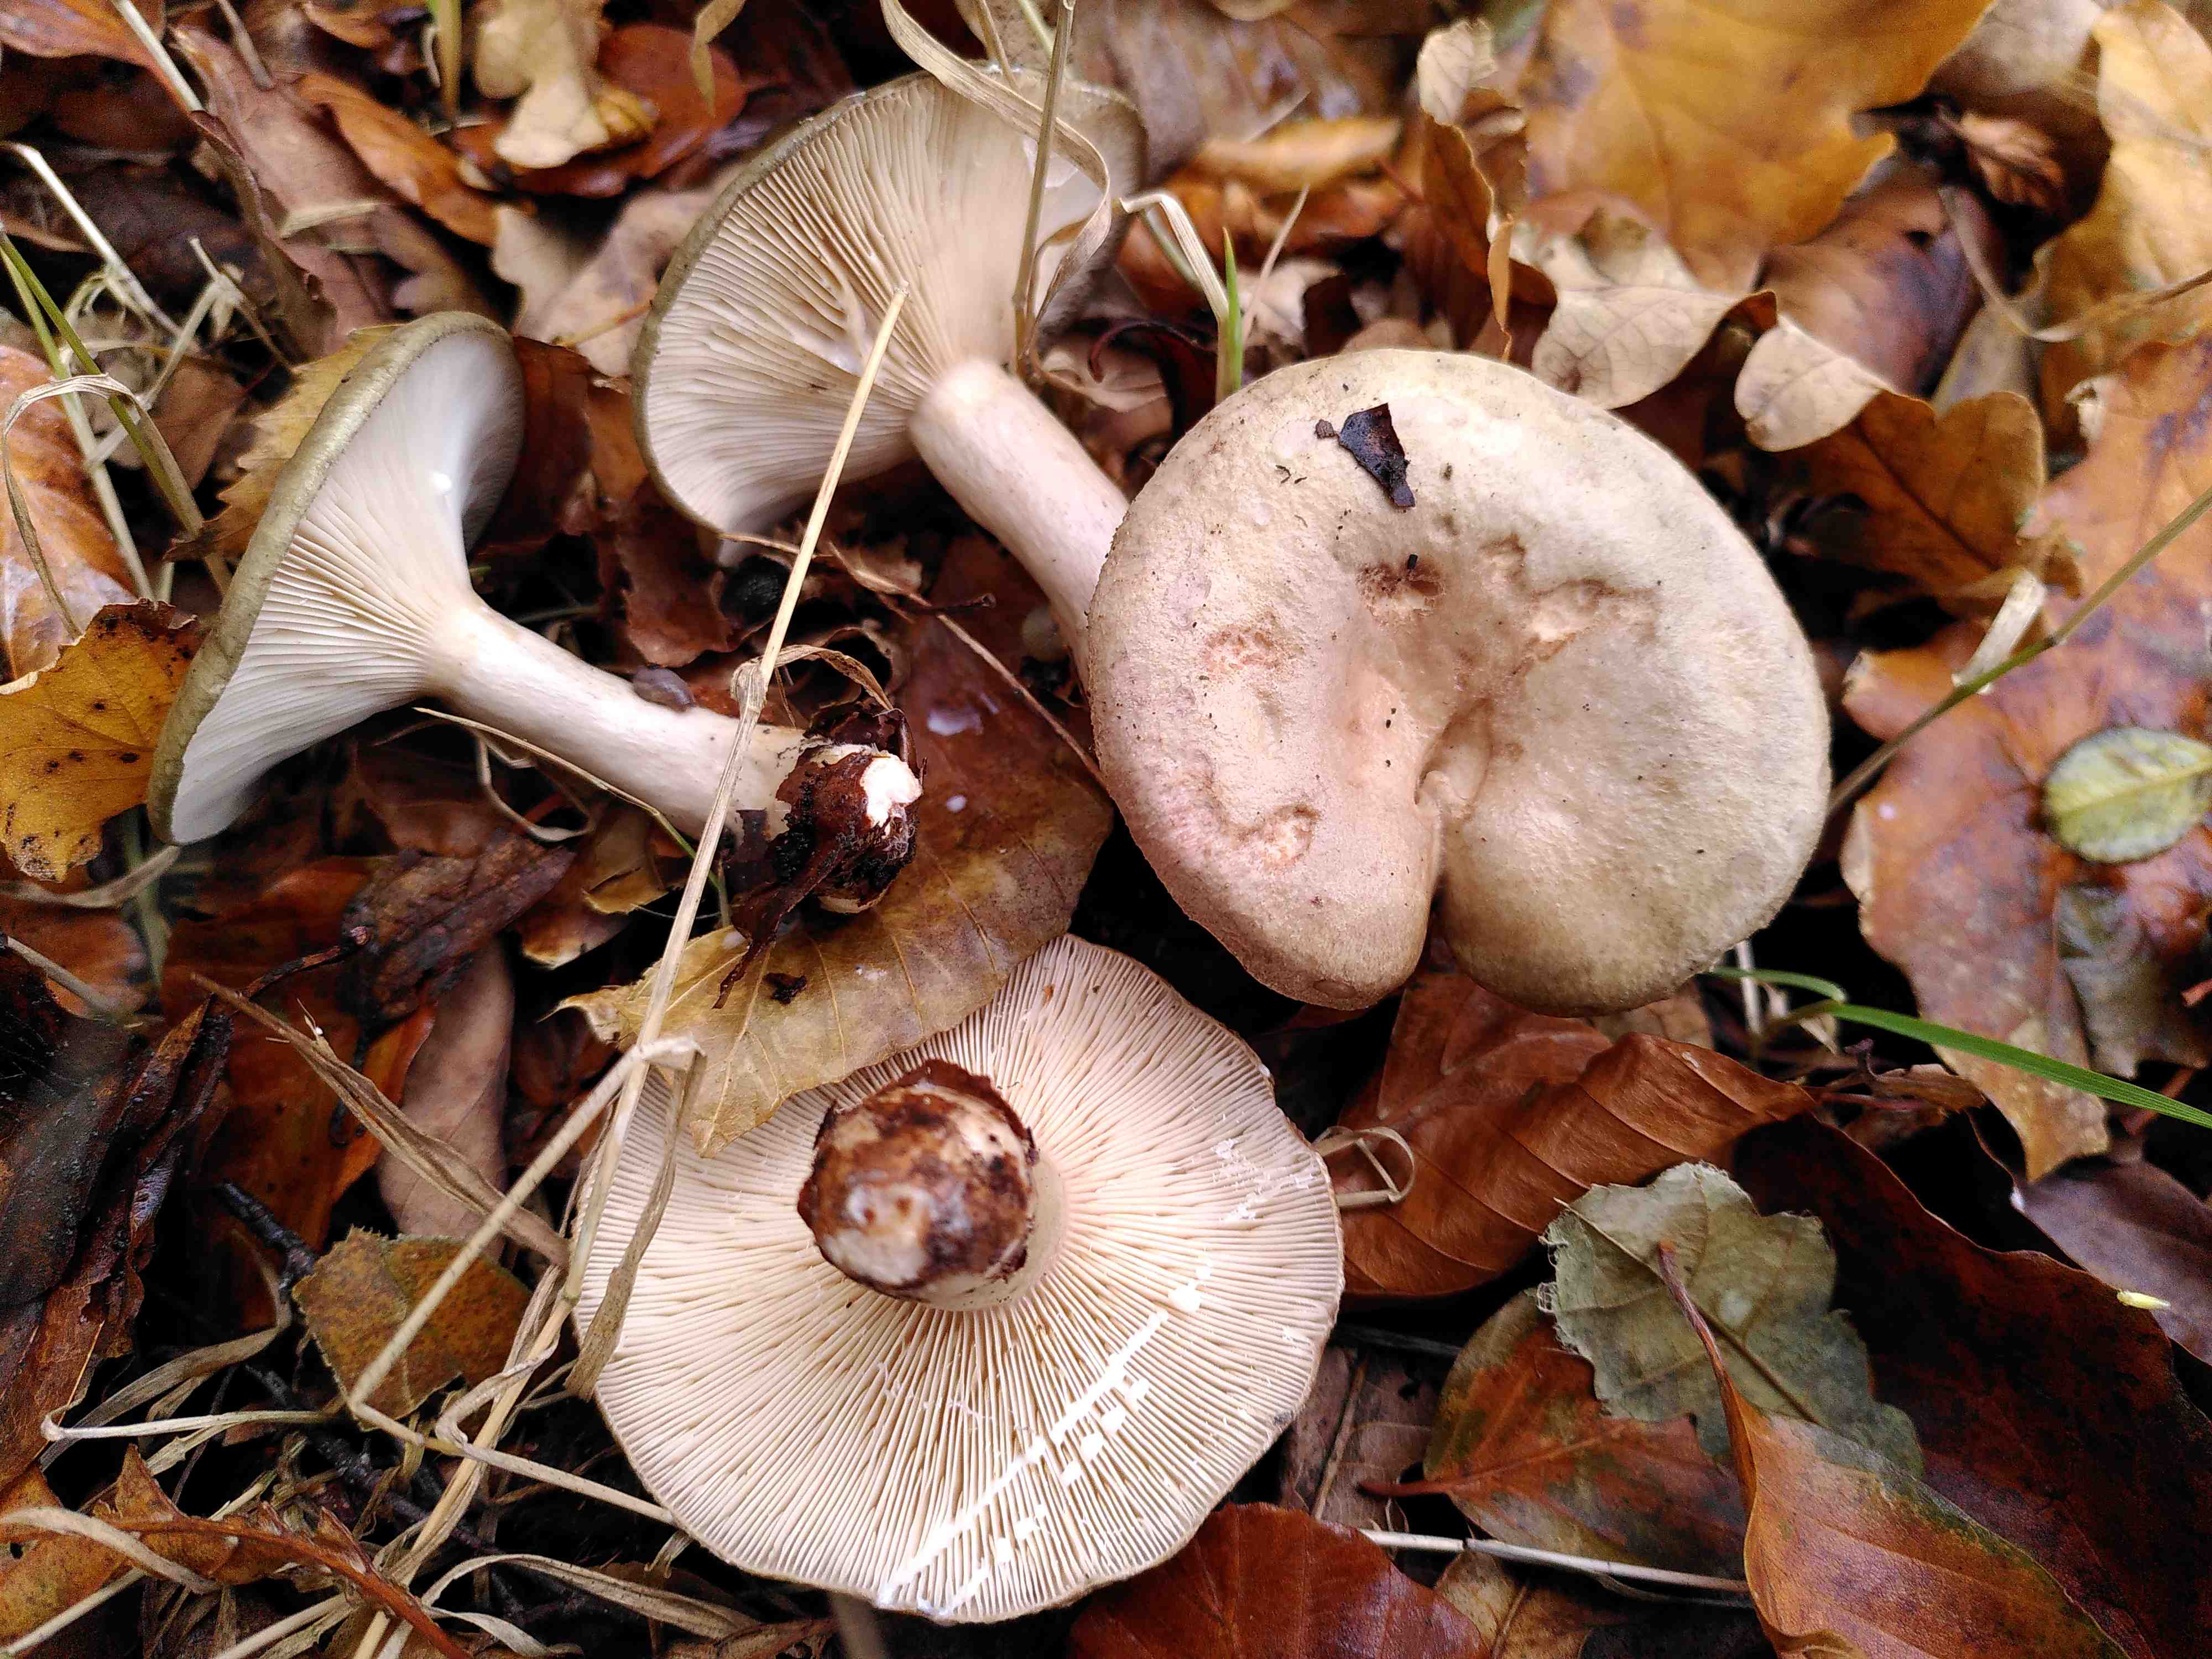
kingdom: Fungi
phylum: Basidiomycota
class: Agaricomycetes
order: Russulales
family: Russulaceae
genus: Lactarius
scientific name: Lactarius blennius
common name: dråbeplettet mælkehat
